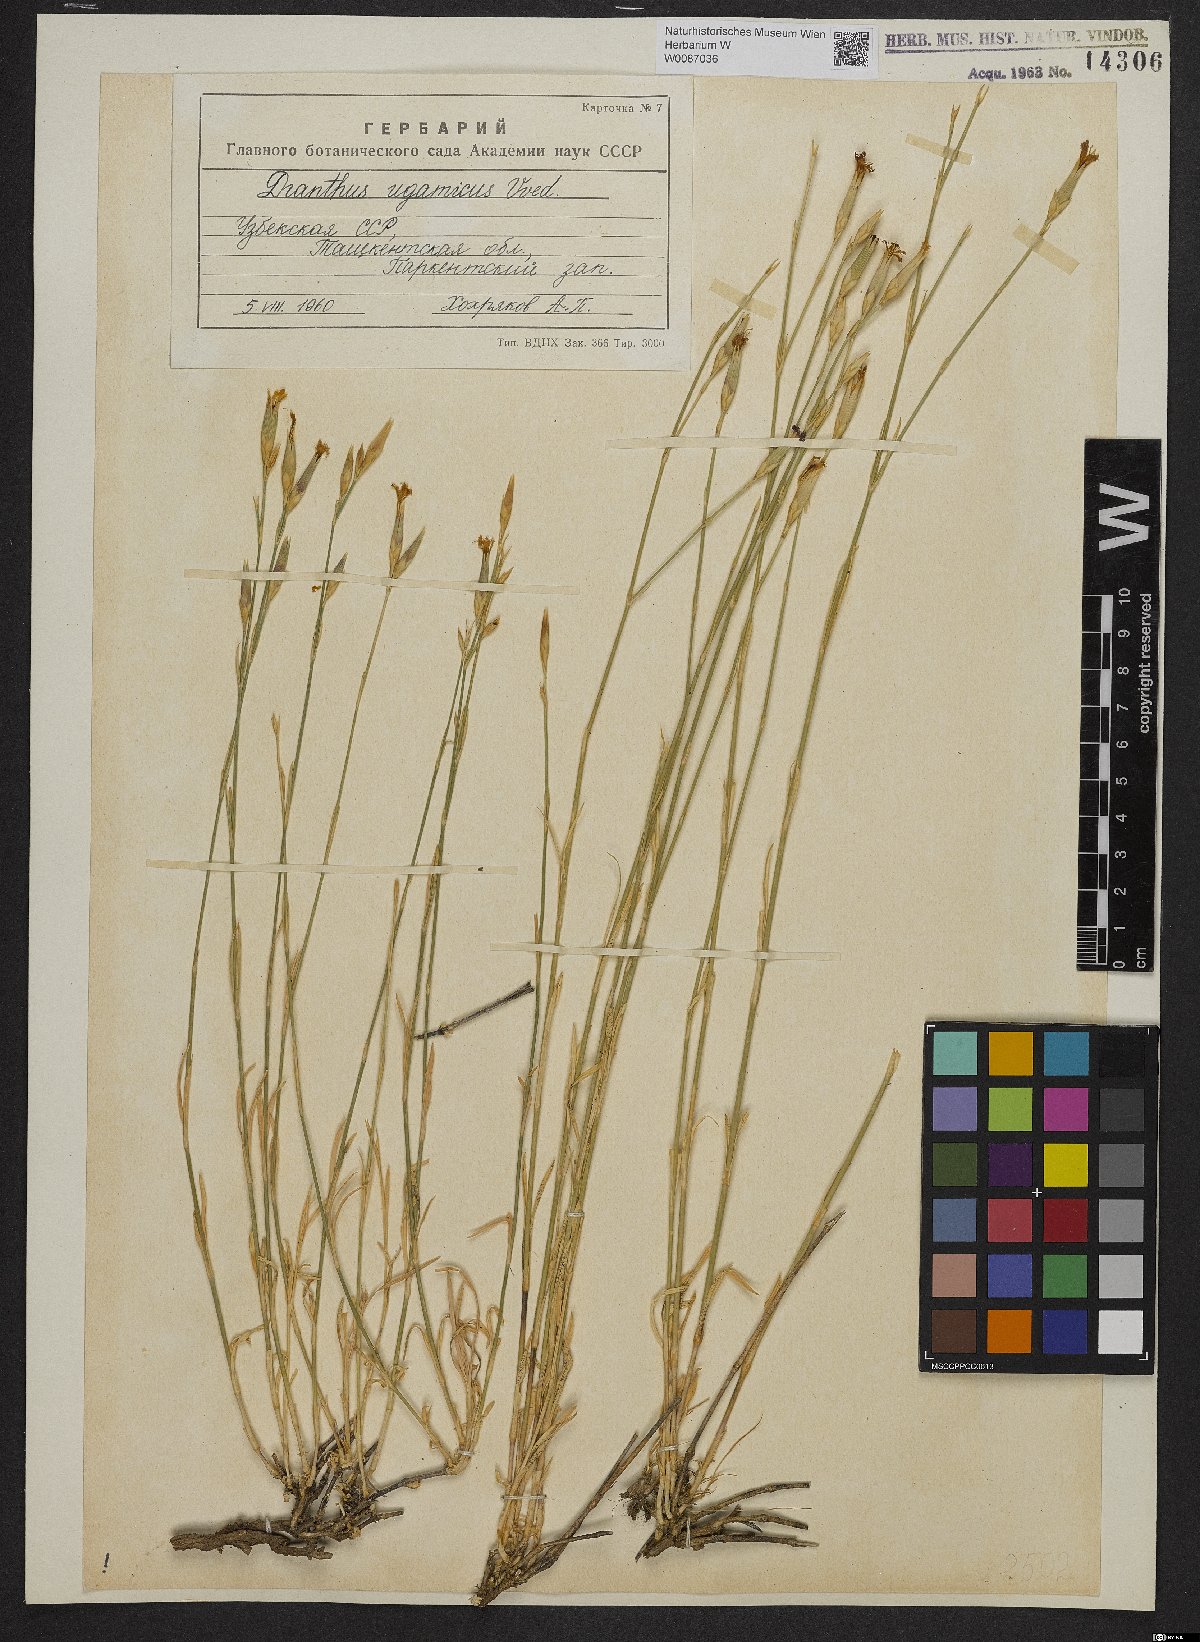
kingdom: Plantae
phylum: Tracheophyta
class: Magnoliopsida
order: Caryophyllales
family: Caryophyllaceae
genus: Dianthus
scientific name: Dianthus ugamicus
